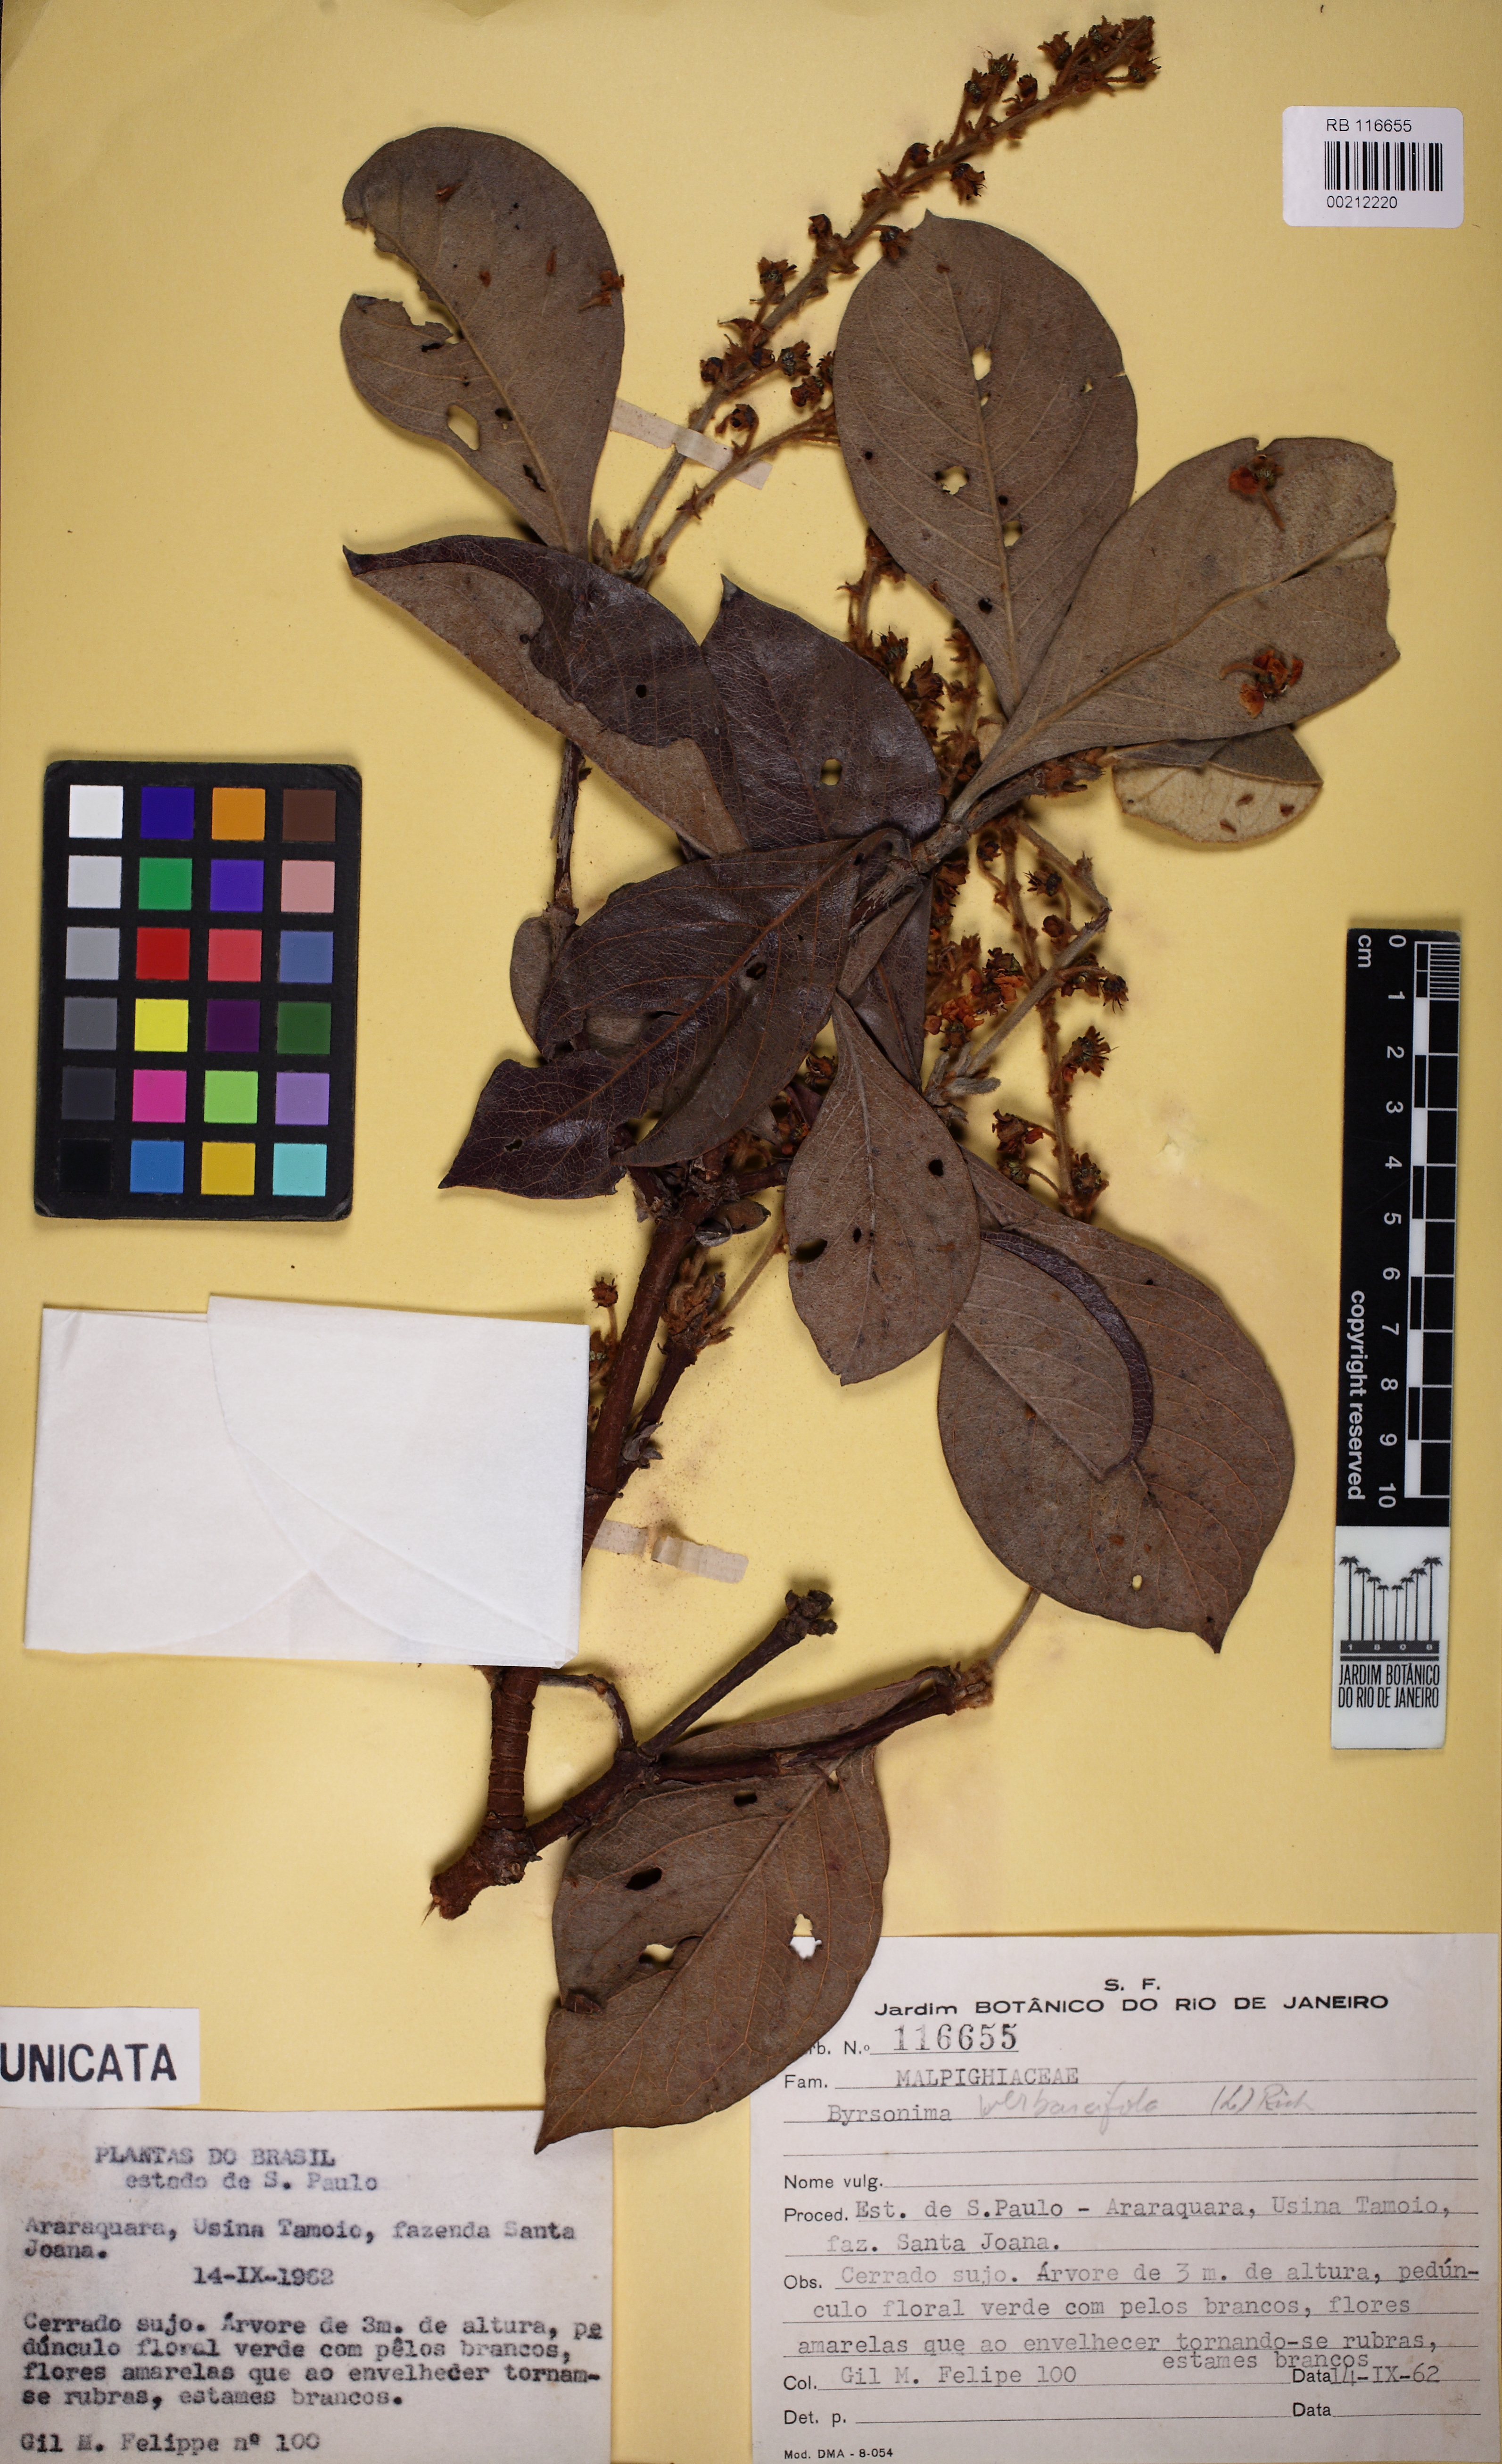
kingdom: Plantae
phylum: Tracheophyta
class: Magnoliopsida
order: Malpighiales
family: Malpighiaceae
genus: Byrsonima
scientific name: Byrsonima verbascifolia
